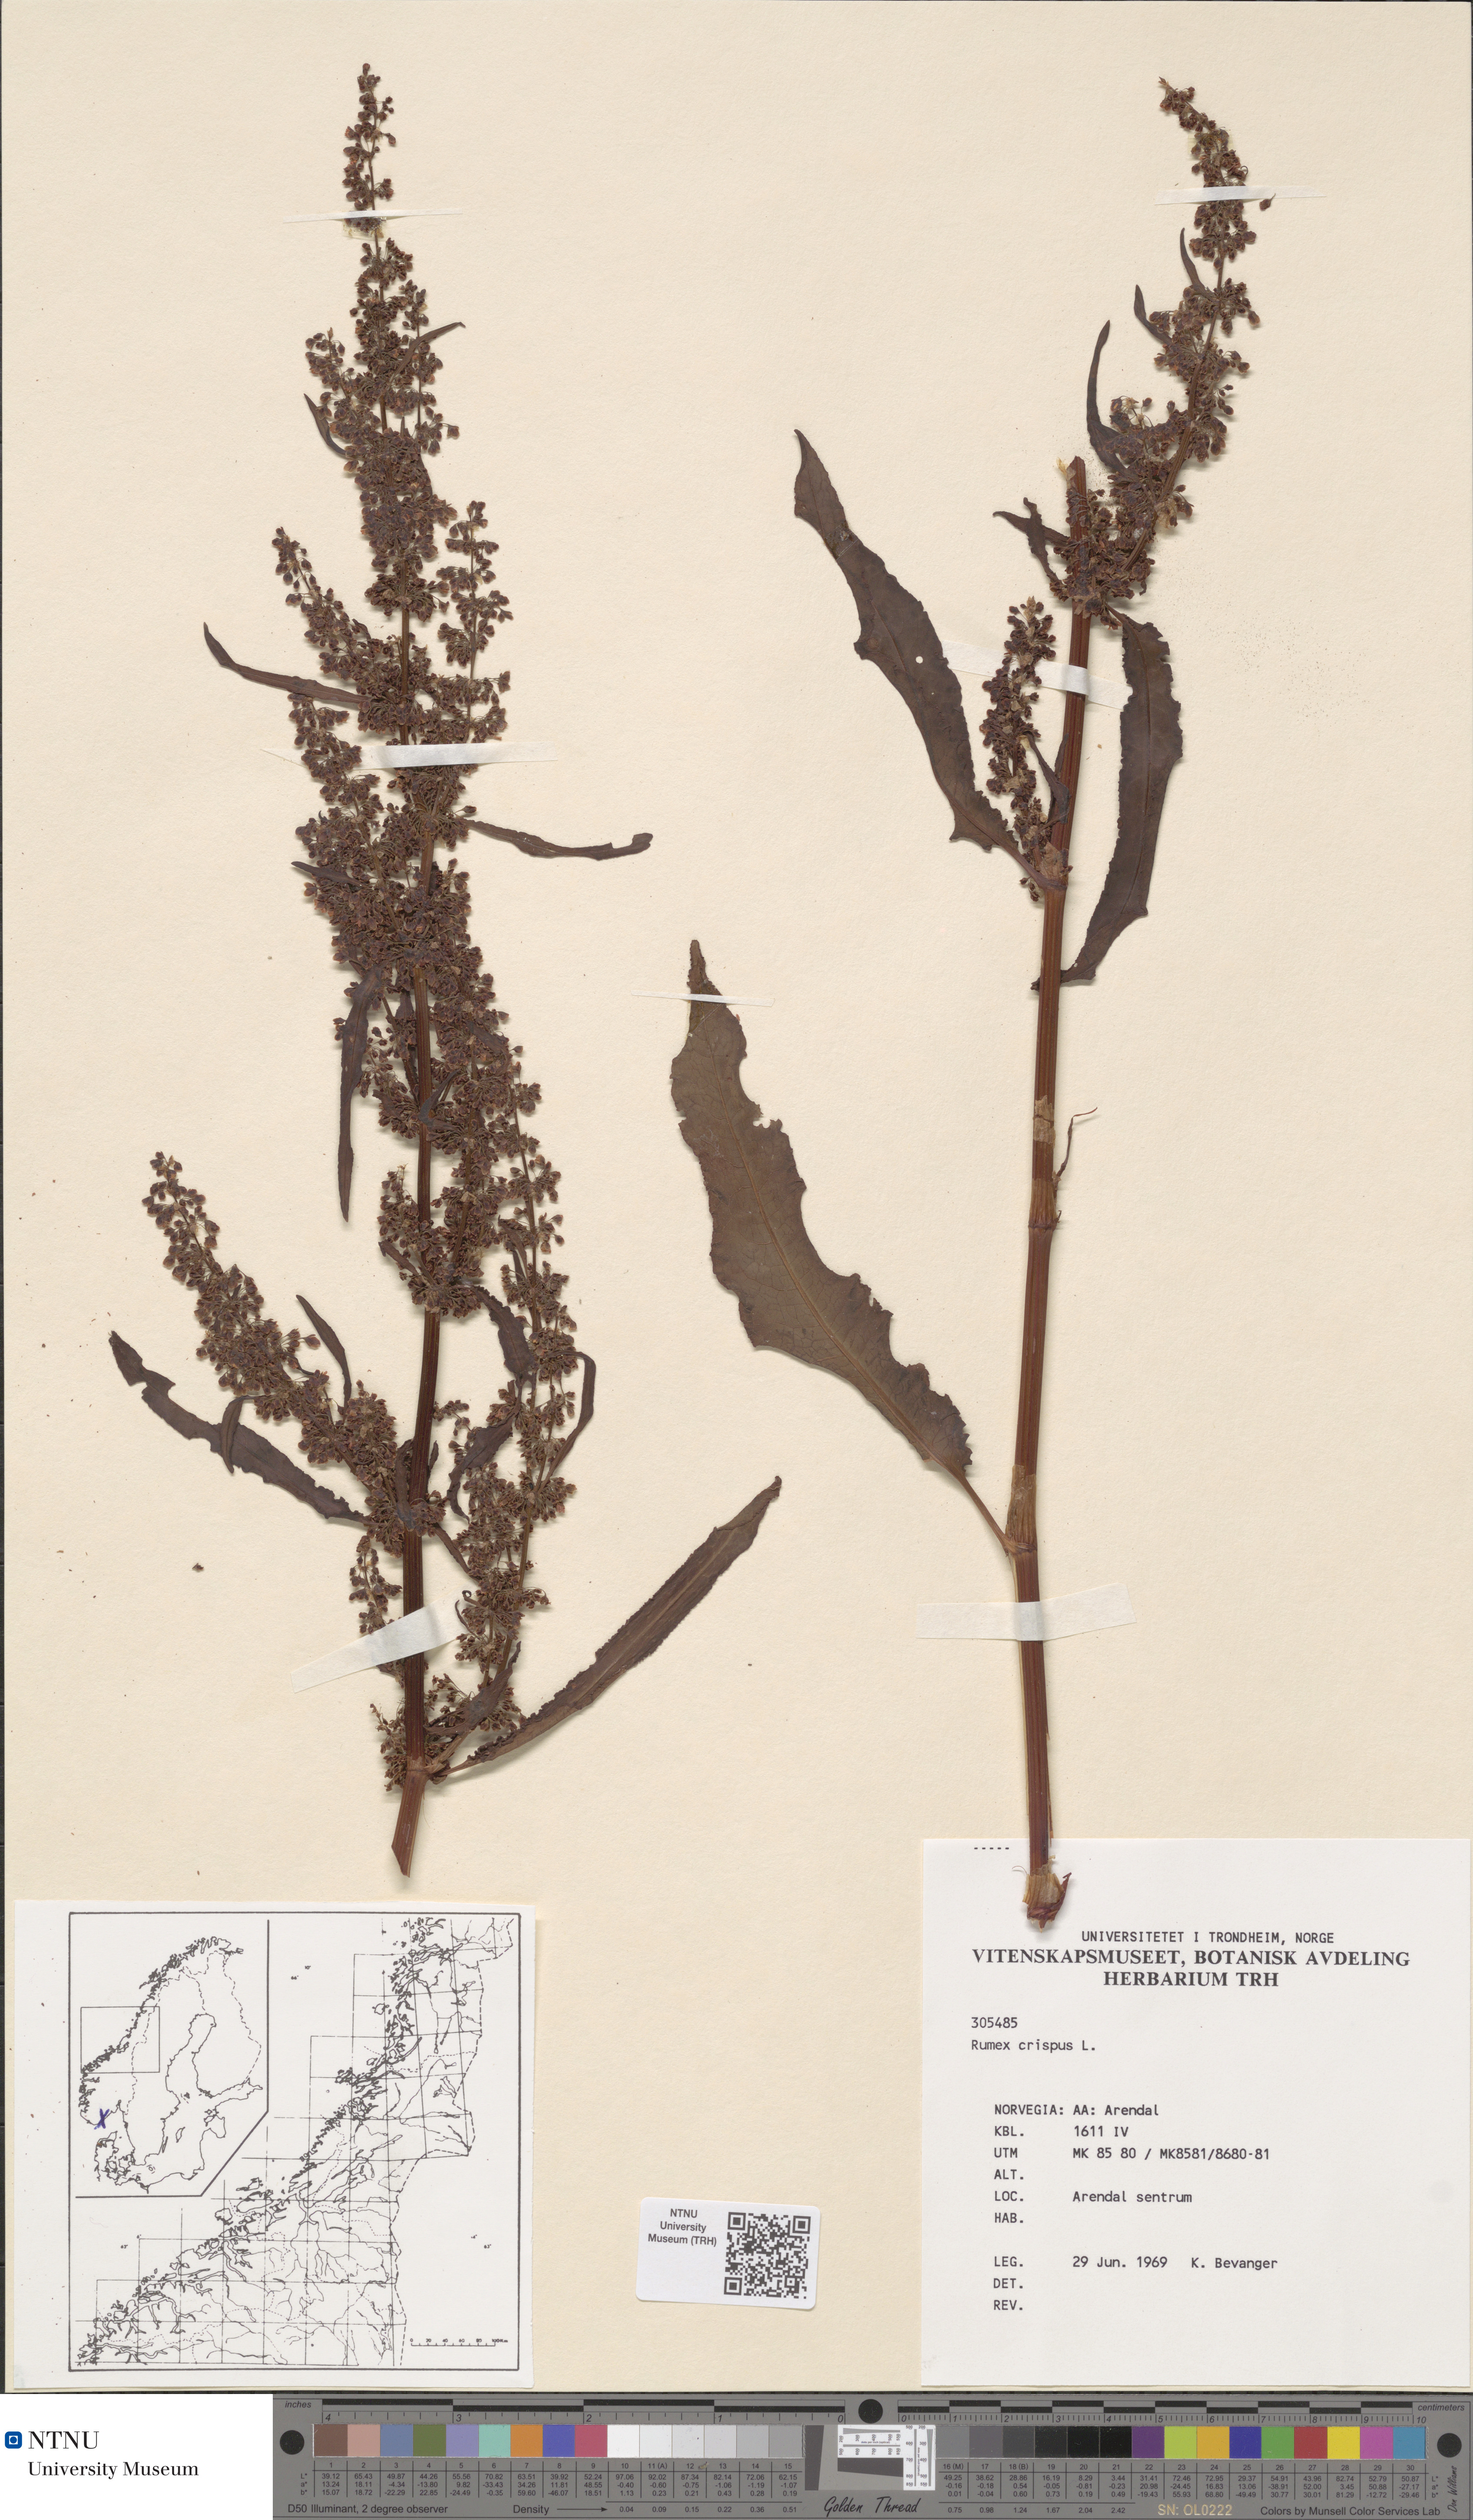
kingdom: Plantae
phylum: Tracheophyta
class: Magnoliopsida
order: Caryophyllales
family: Polygonaceae
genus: Rumex
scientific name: Rumex crispus
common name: Curled dock
